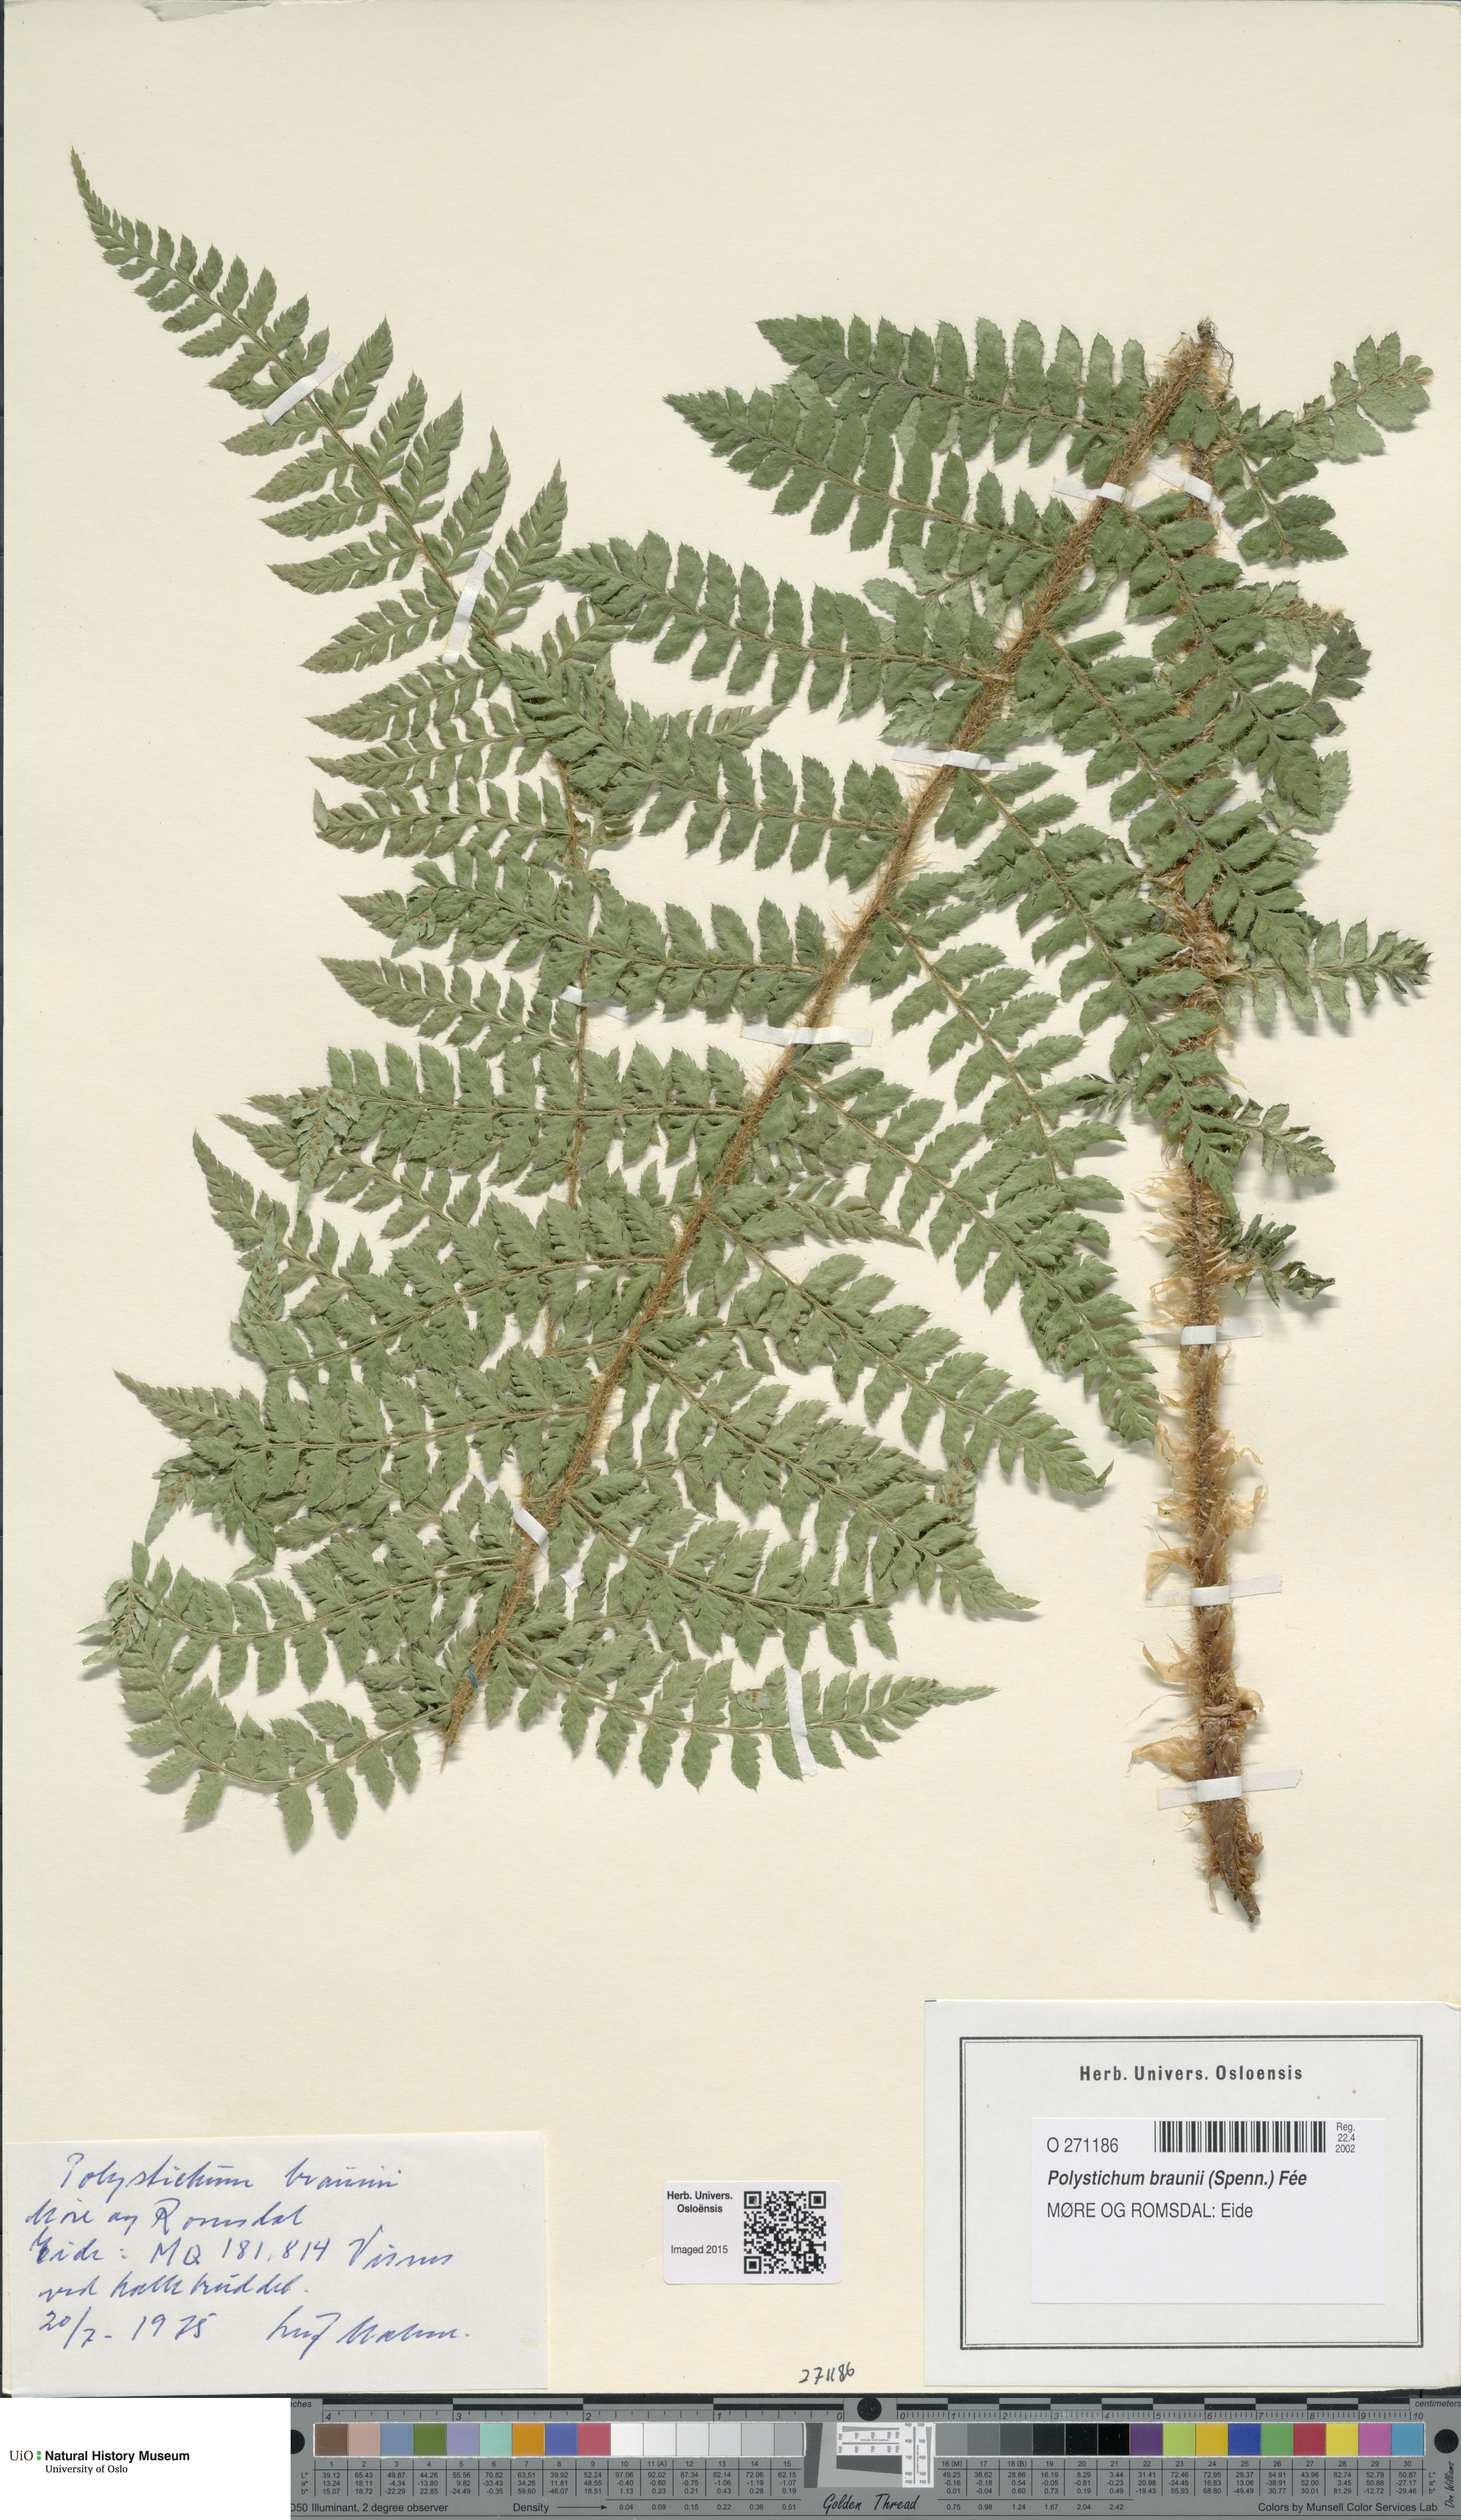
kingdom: Plantae
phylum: Tracheophyta
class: Polypodiopsida
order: Polypodiales
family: Dryopteridaceae
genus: Polystichum
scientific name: Polystichum braunii
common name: Braun's holly fern
